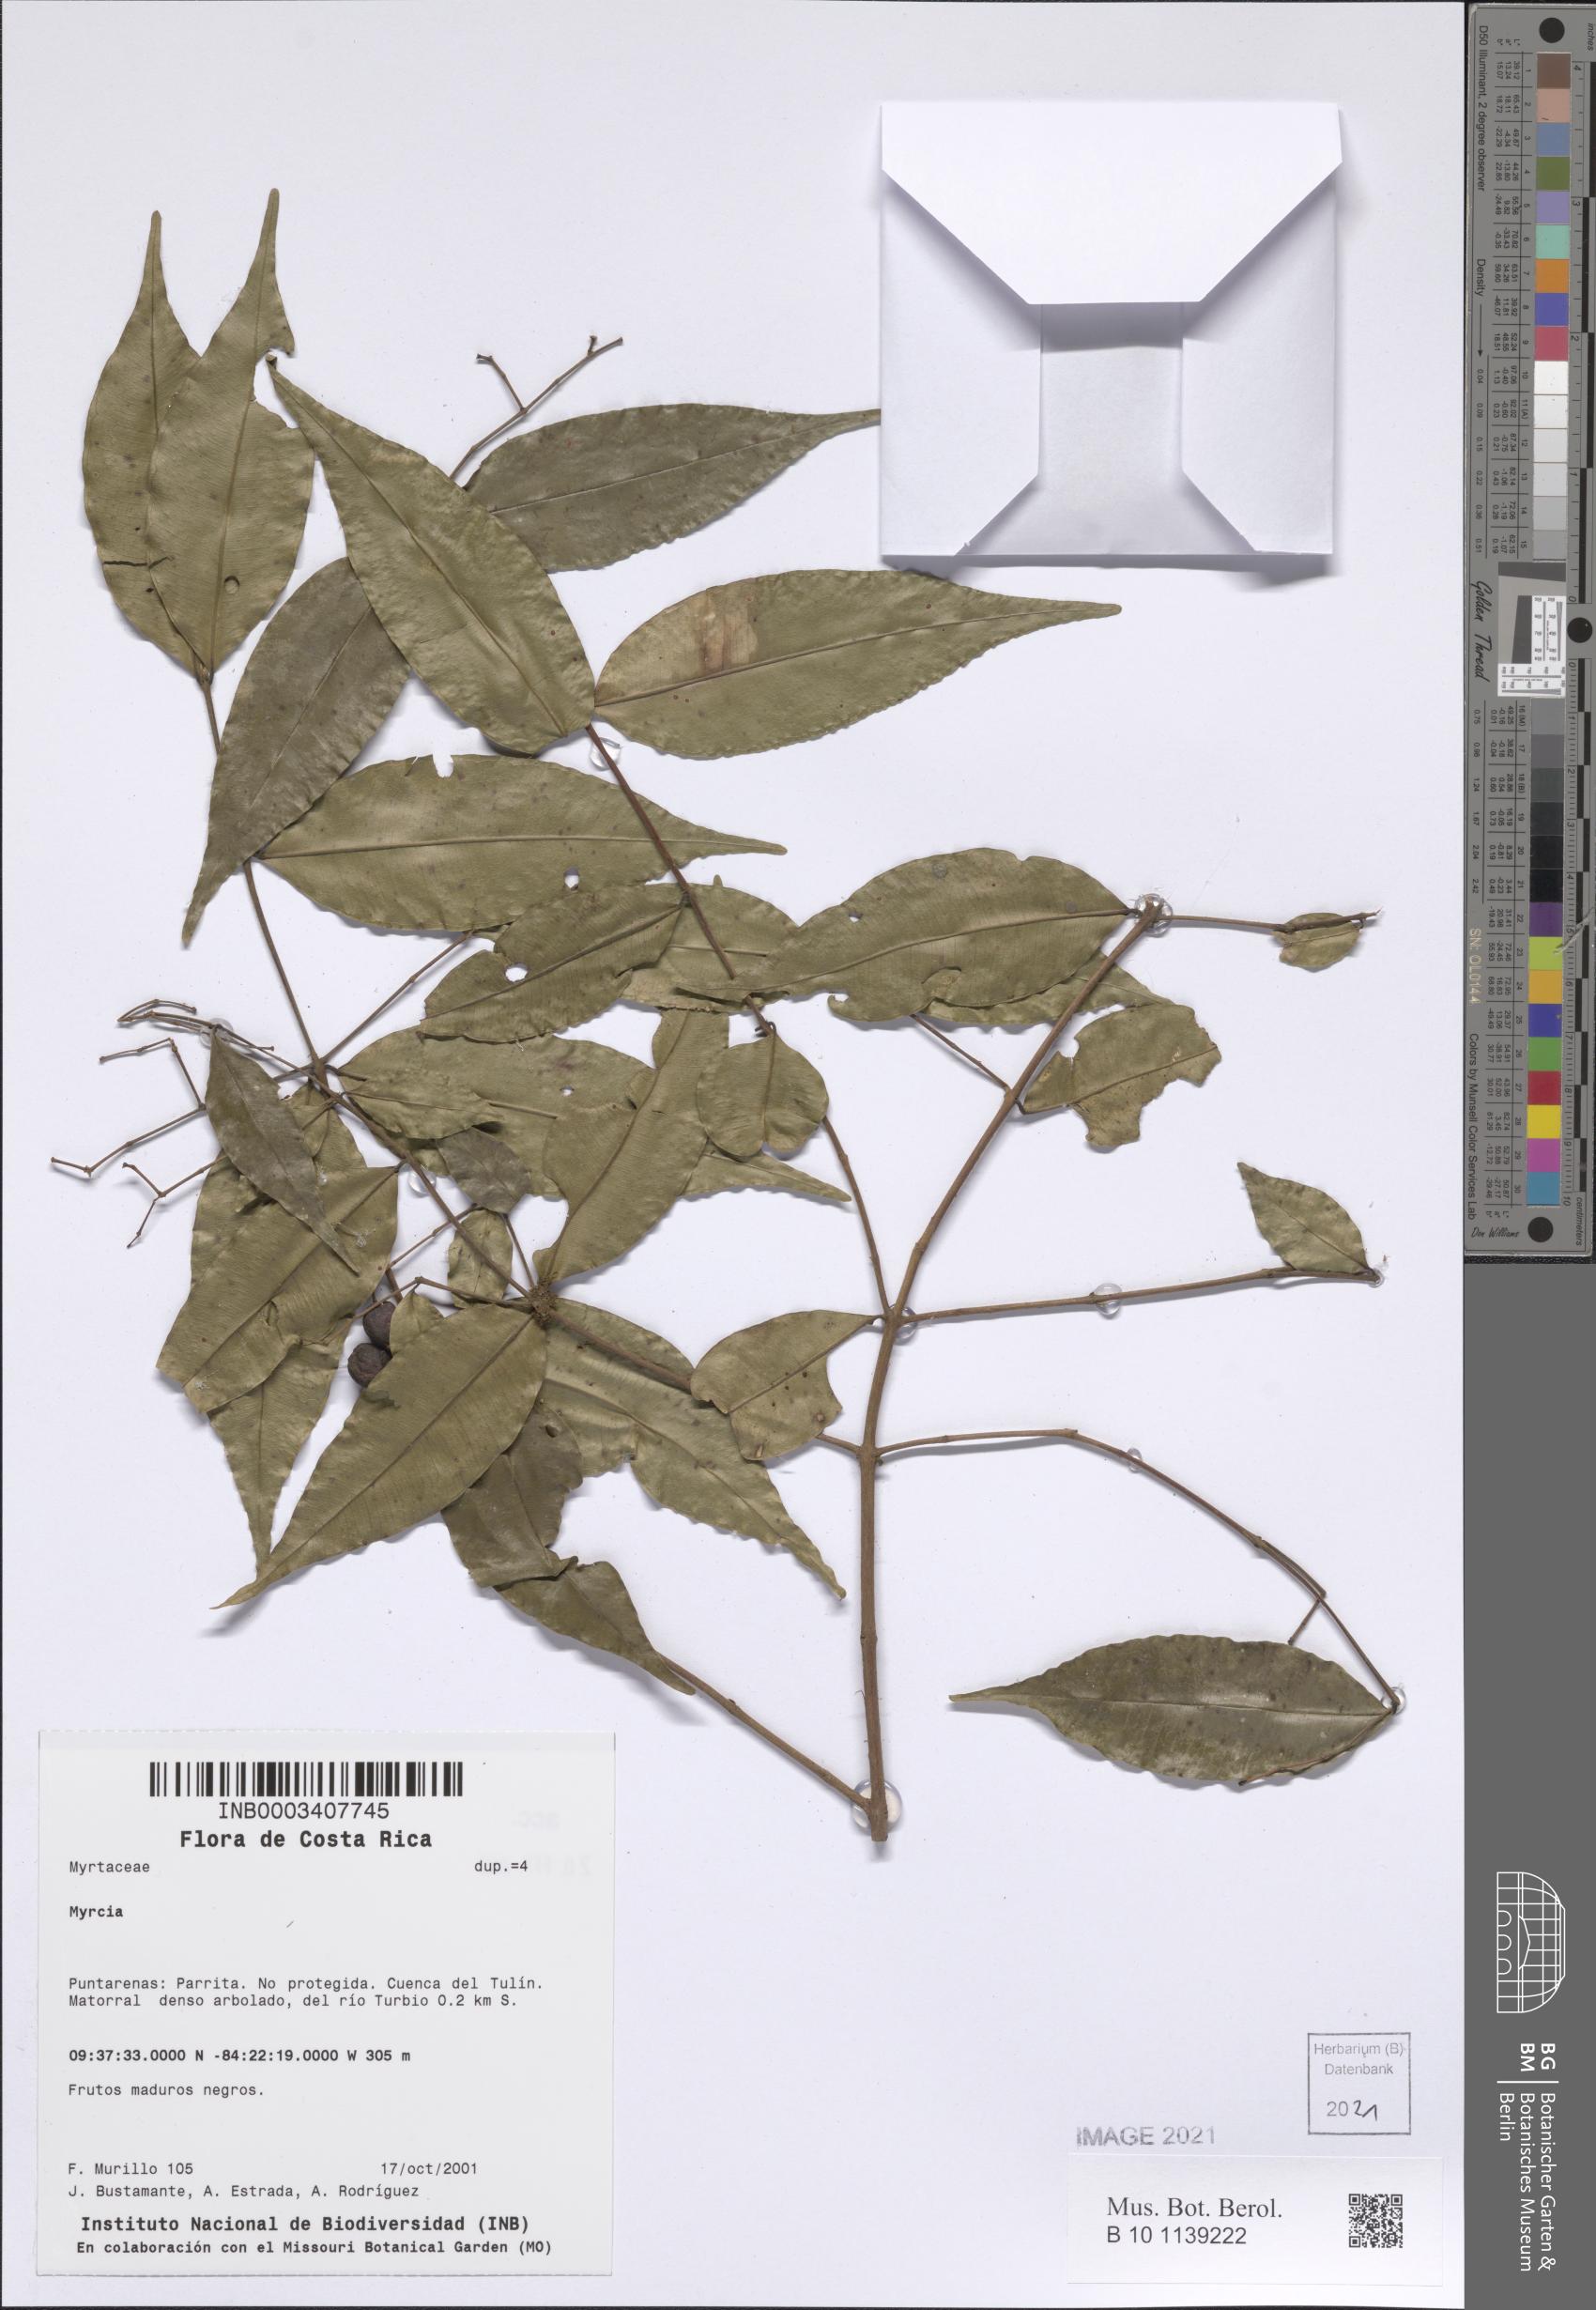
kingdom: Plantae
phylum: Tracheophyta
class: Magnoliopsida
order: Myrtales
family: Myrtaceae
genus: Myrcia
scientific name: Myrcia
